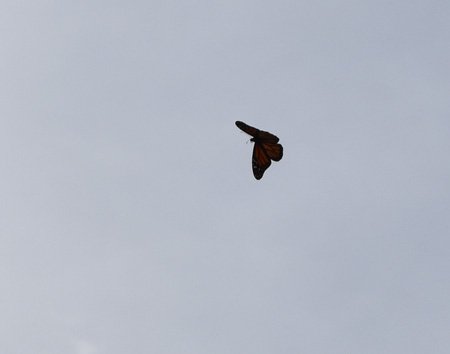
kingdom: Animalia
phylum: Arthropoda
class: Insecta
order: Lepidoptera
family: Nymphalidae
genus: Danaus
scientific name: Danaus plexippus
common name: Monarch
